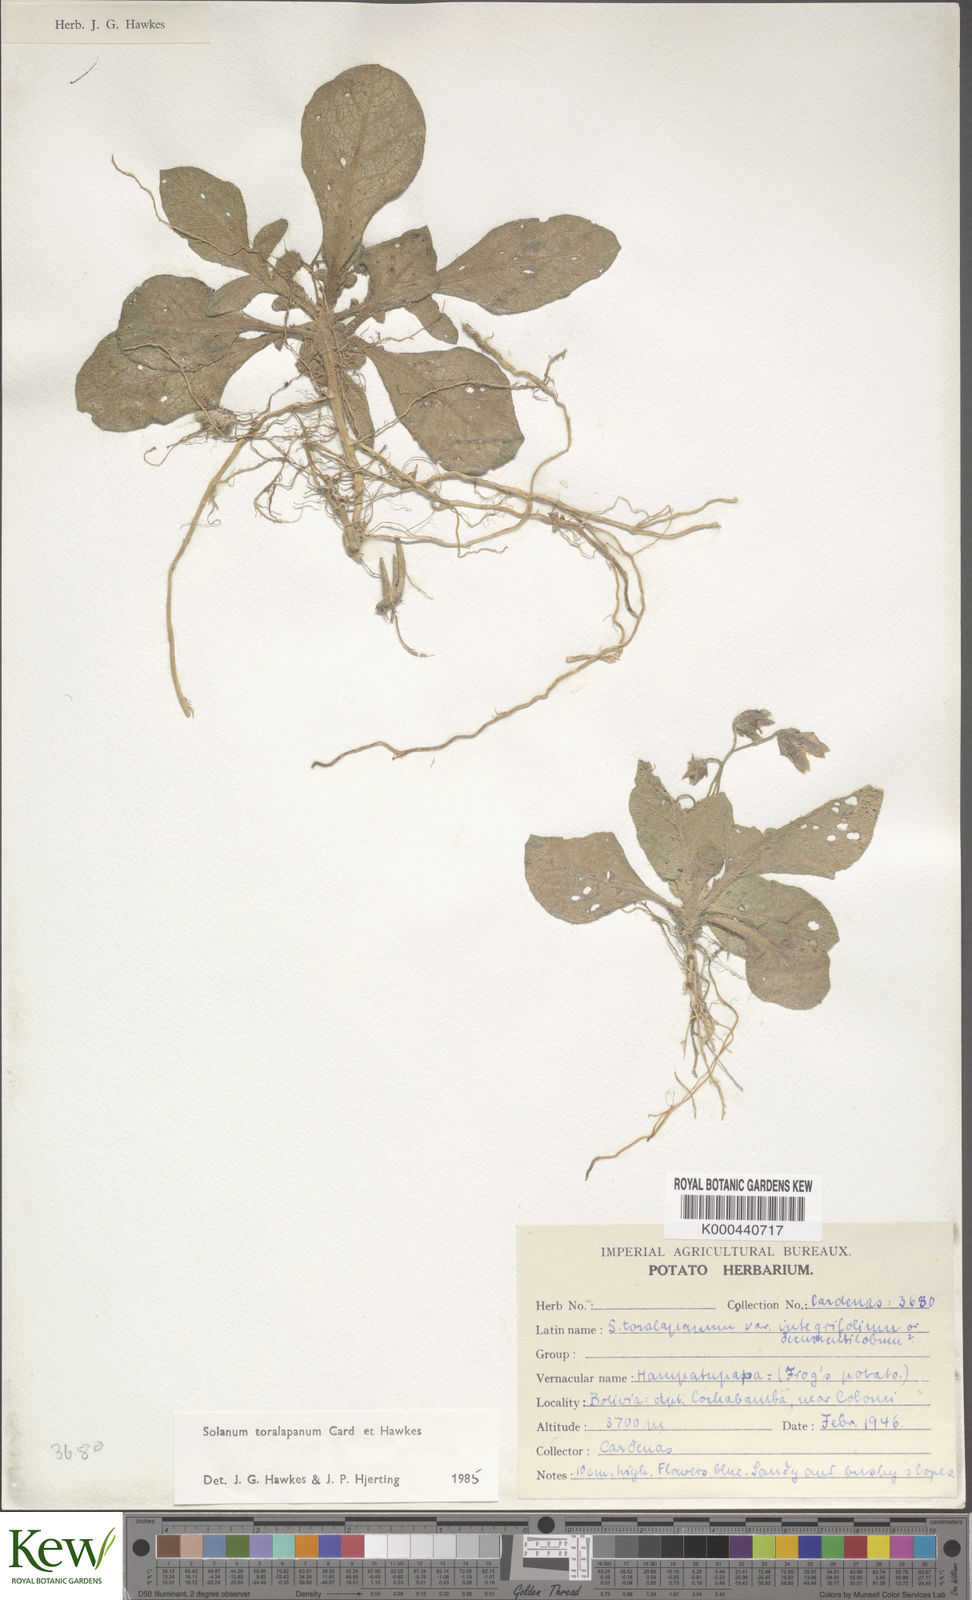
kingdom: Plantae
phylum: Tracheophyta
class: Magnoliopsida
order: Solanales
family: Solanaceae
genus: Solanum
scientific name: Solanum boliviense
